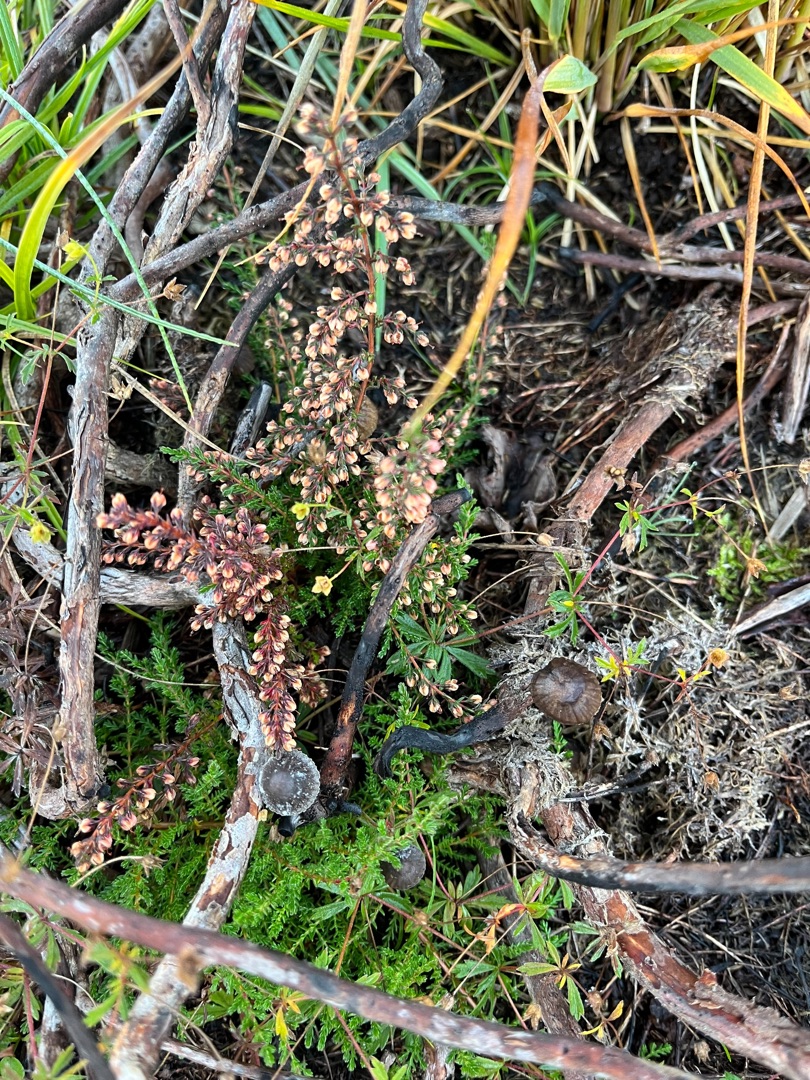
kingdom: Plantae
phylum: Tracheophyta
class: Magnoliopsida
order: Ericales
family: Ericaceae
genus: Calluna
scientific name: Calluna vulgaris
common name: Hedelyng
